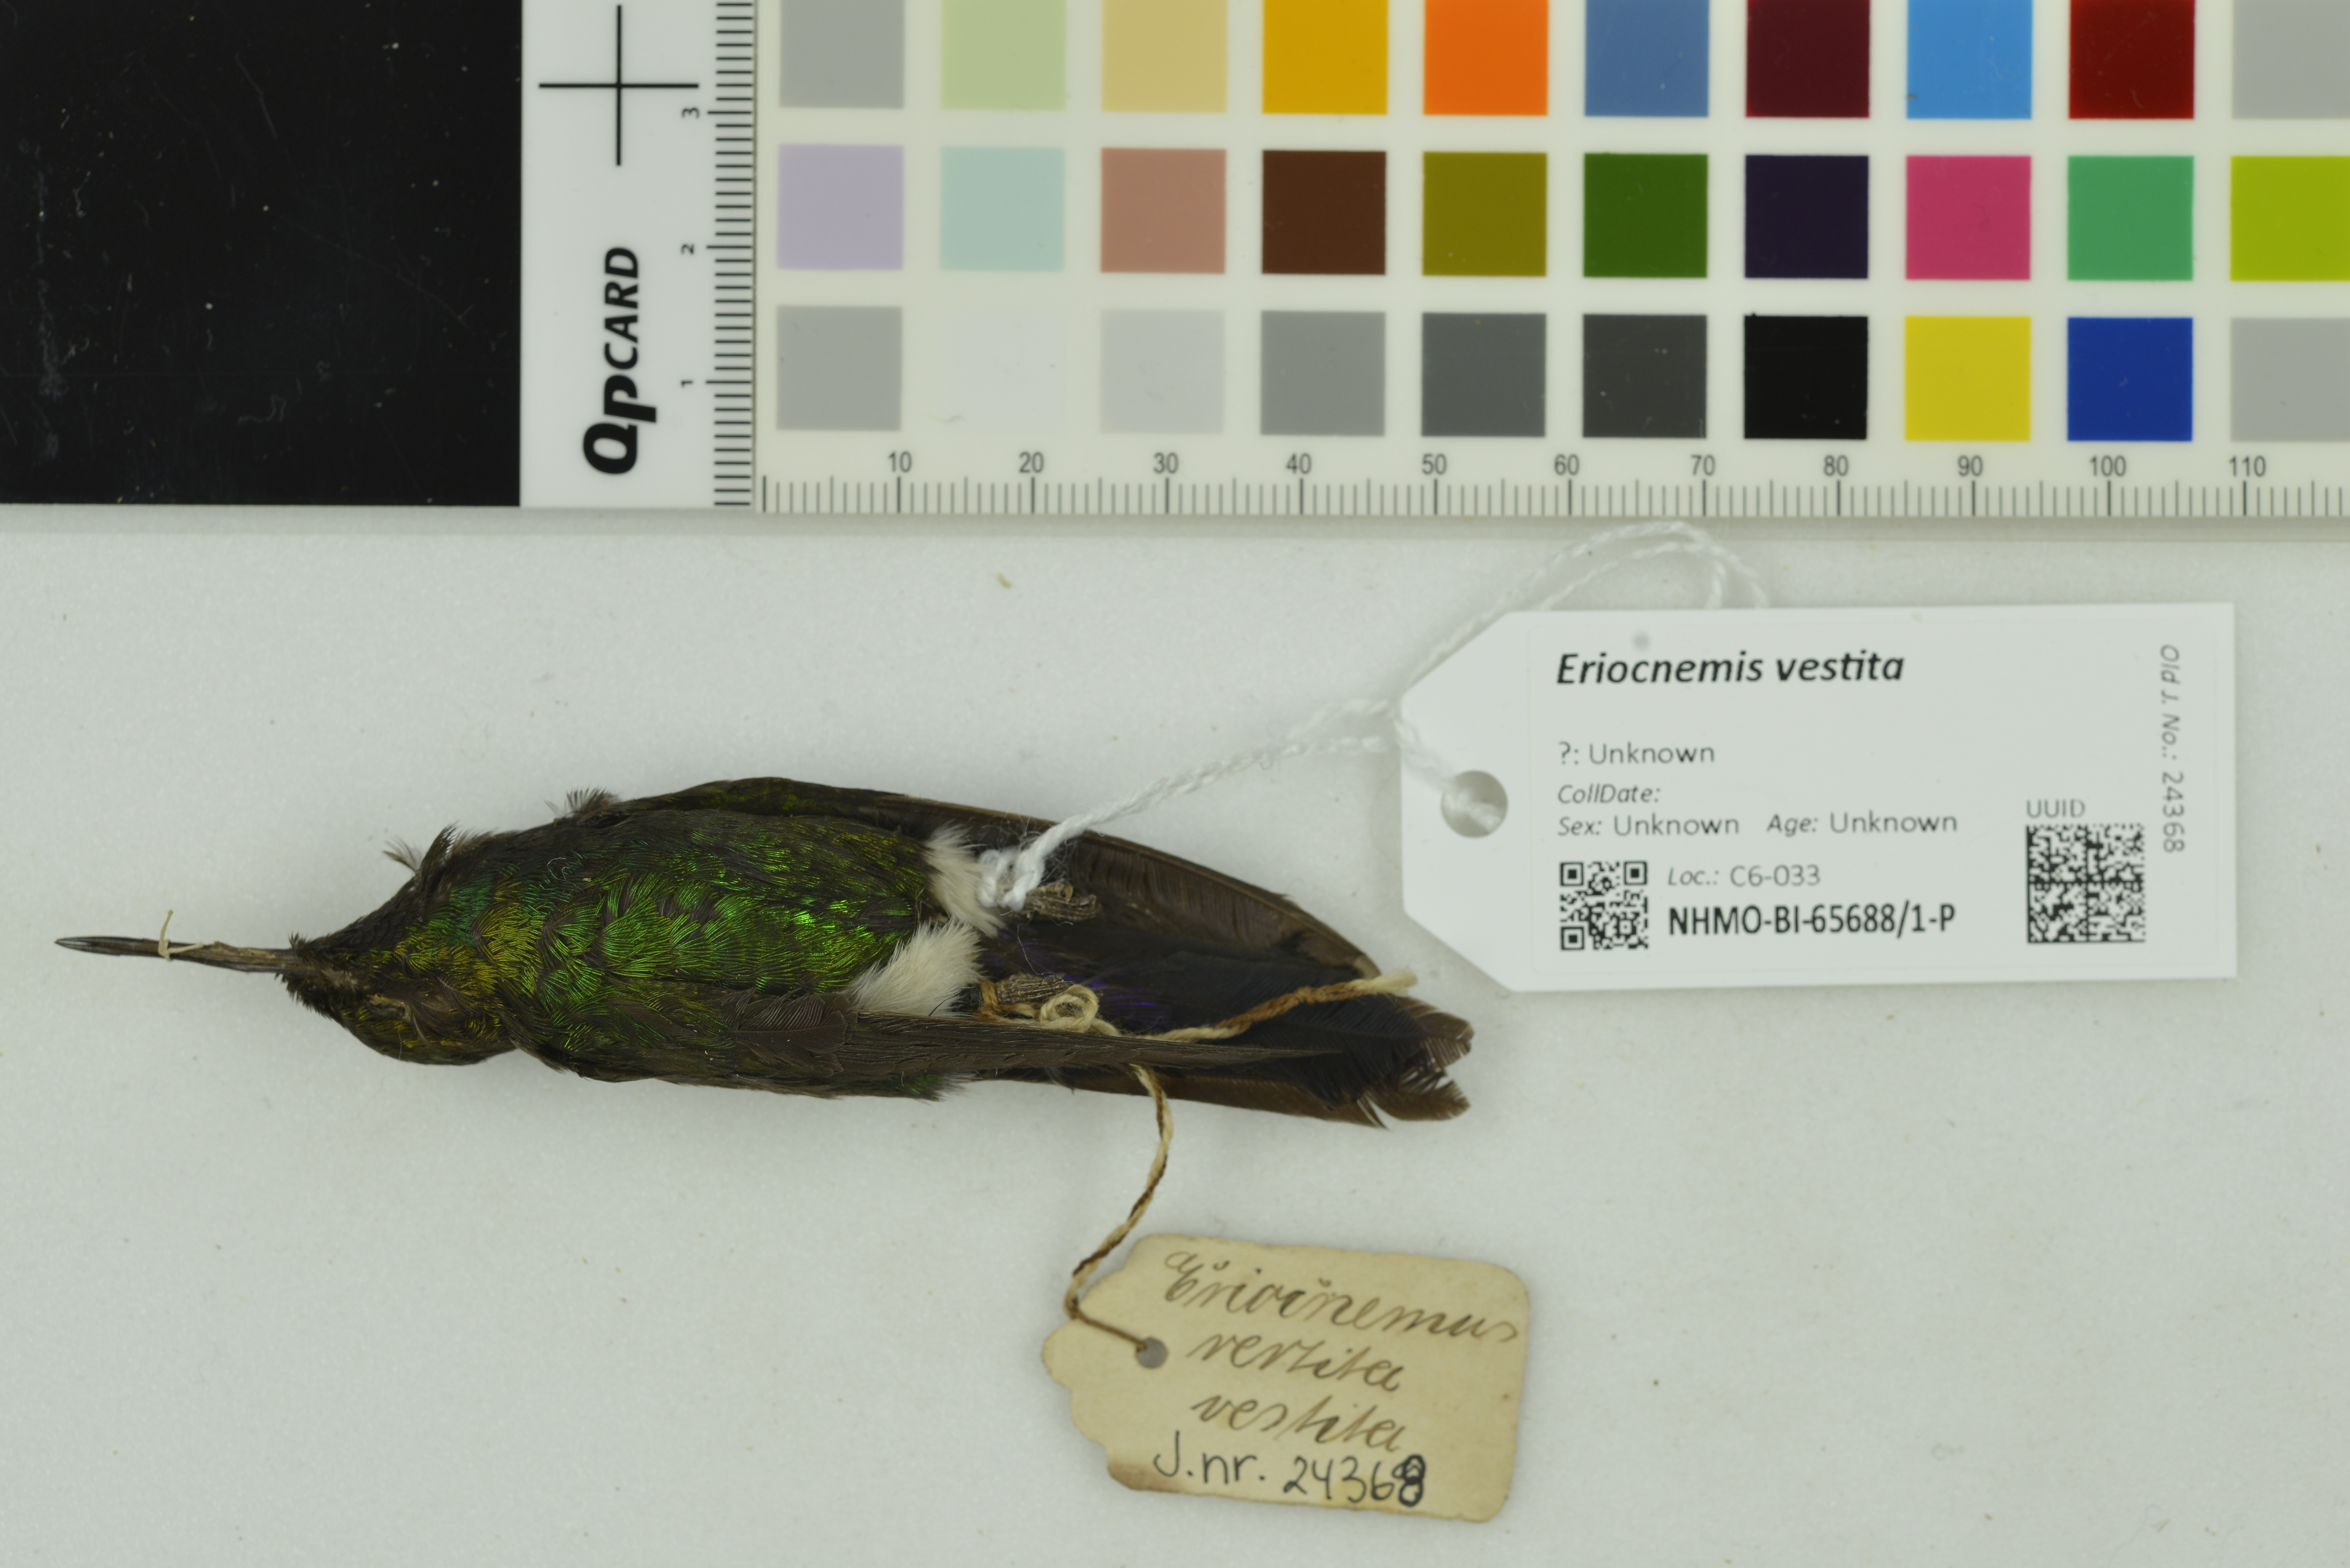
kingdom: Animalia
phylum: Chordata
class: Aves
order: Apodiformes
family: Trochilidae
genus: Eriocnemis
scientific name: Eriocnemis vestita
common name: Glowing puffleg
